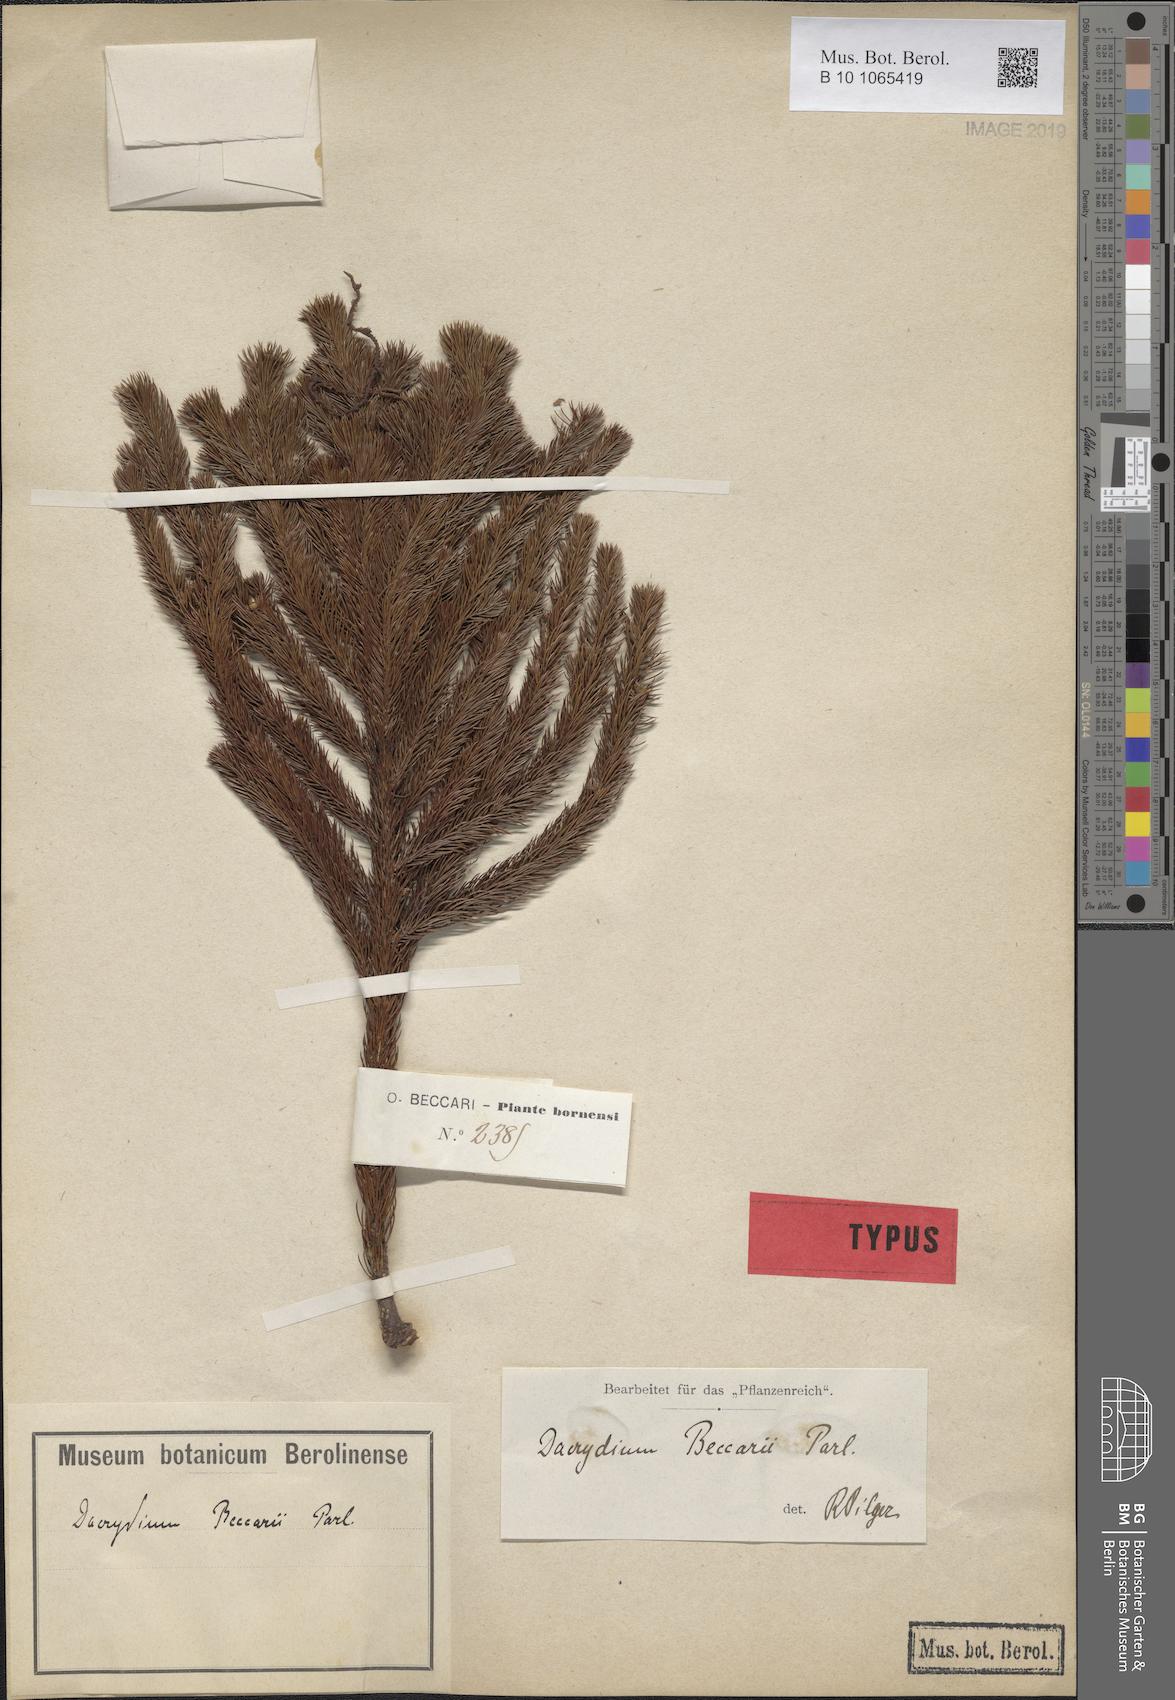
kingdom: Plantae
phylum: Tracheophyta
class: Pinopsida
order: Pinales
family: Podocarpaceae
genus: Dacrydium
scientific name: Dacrydium beccarii
